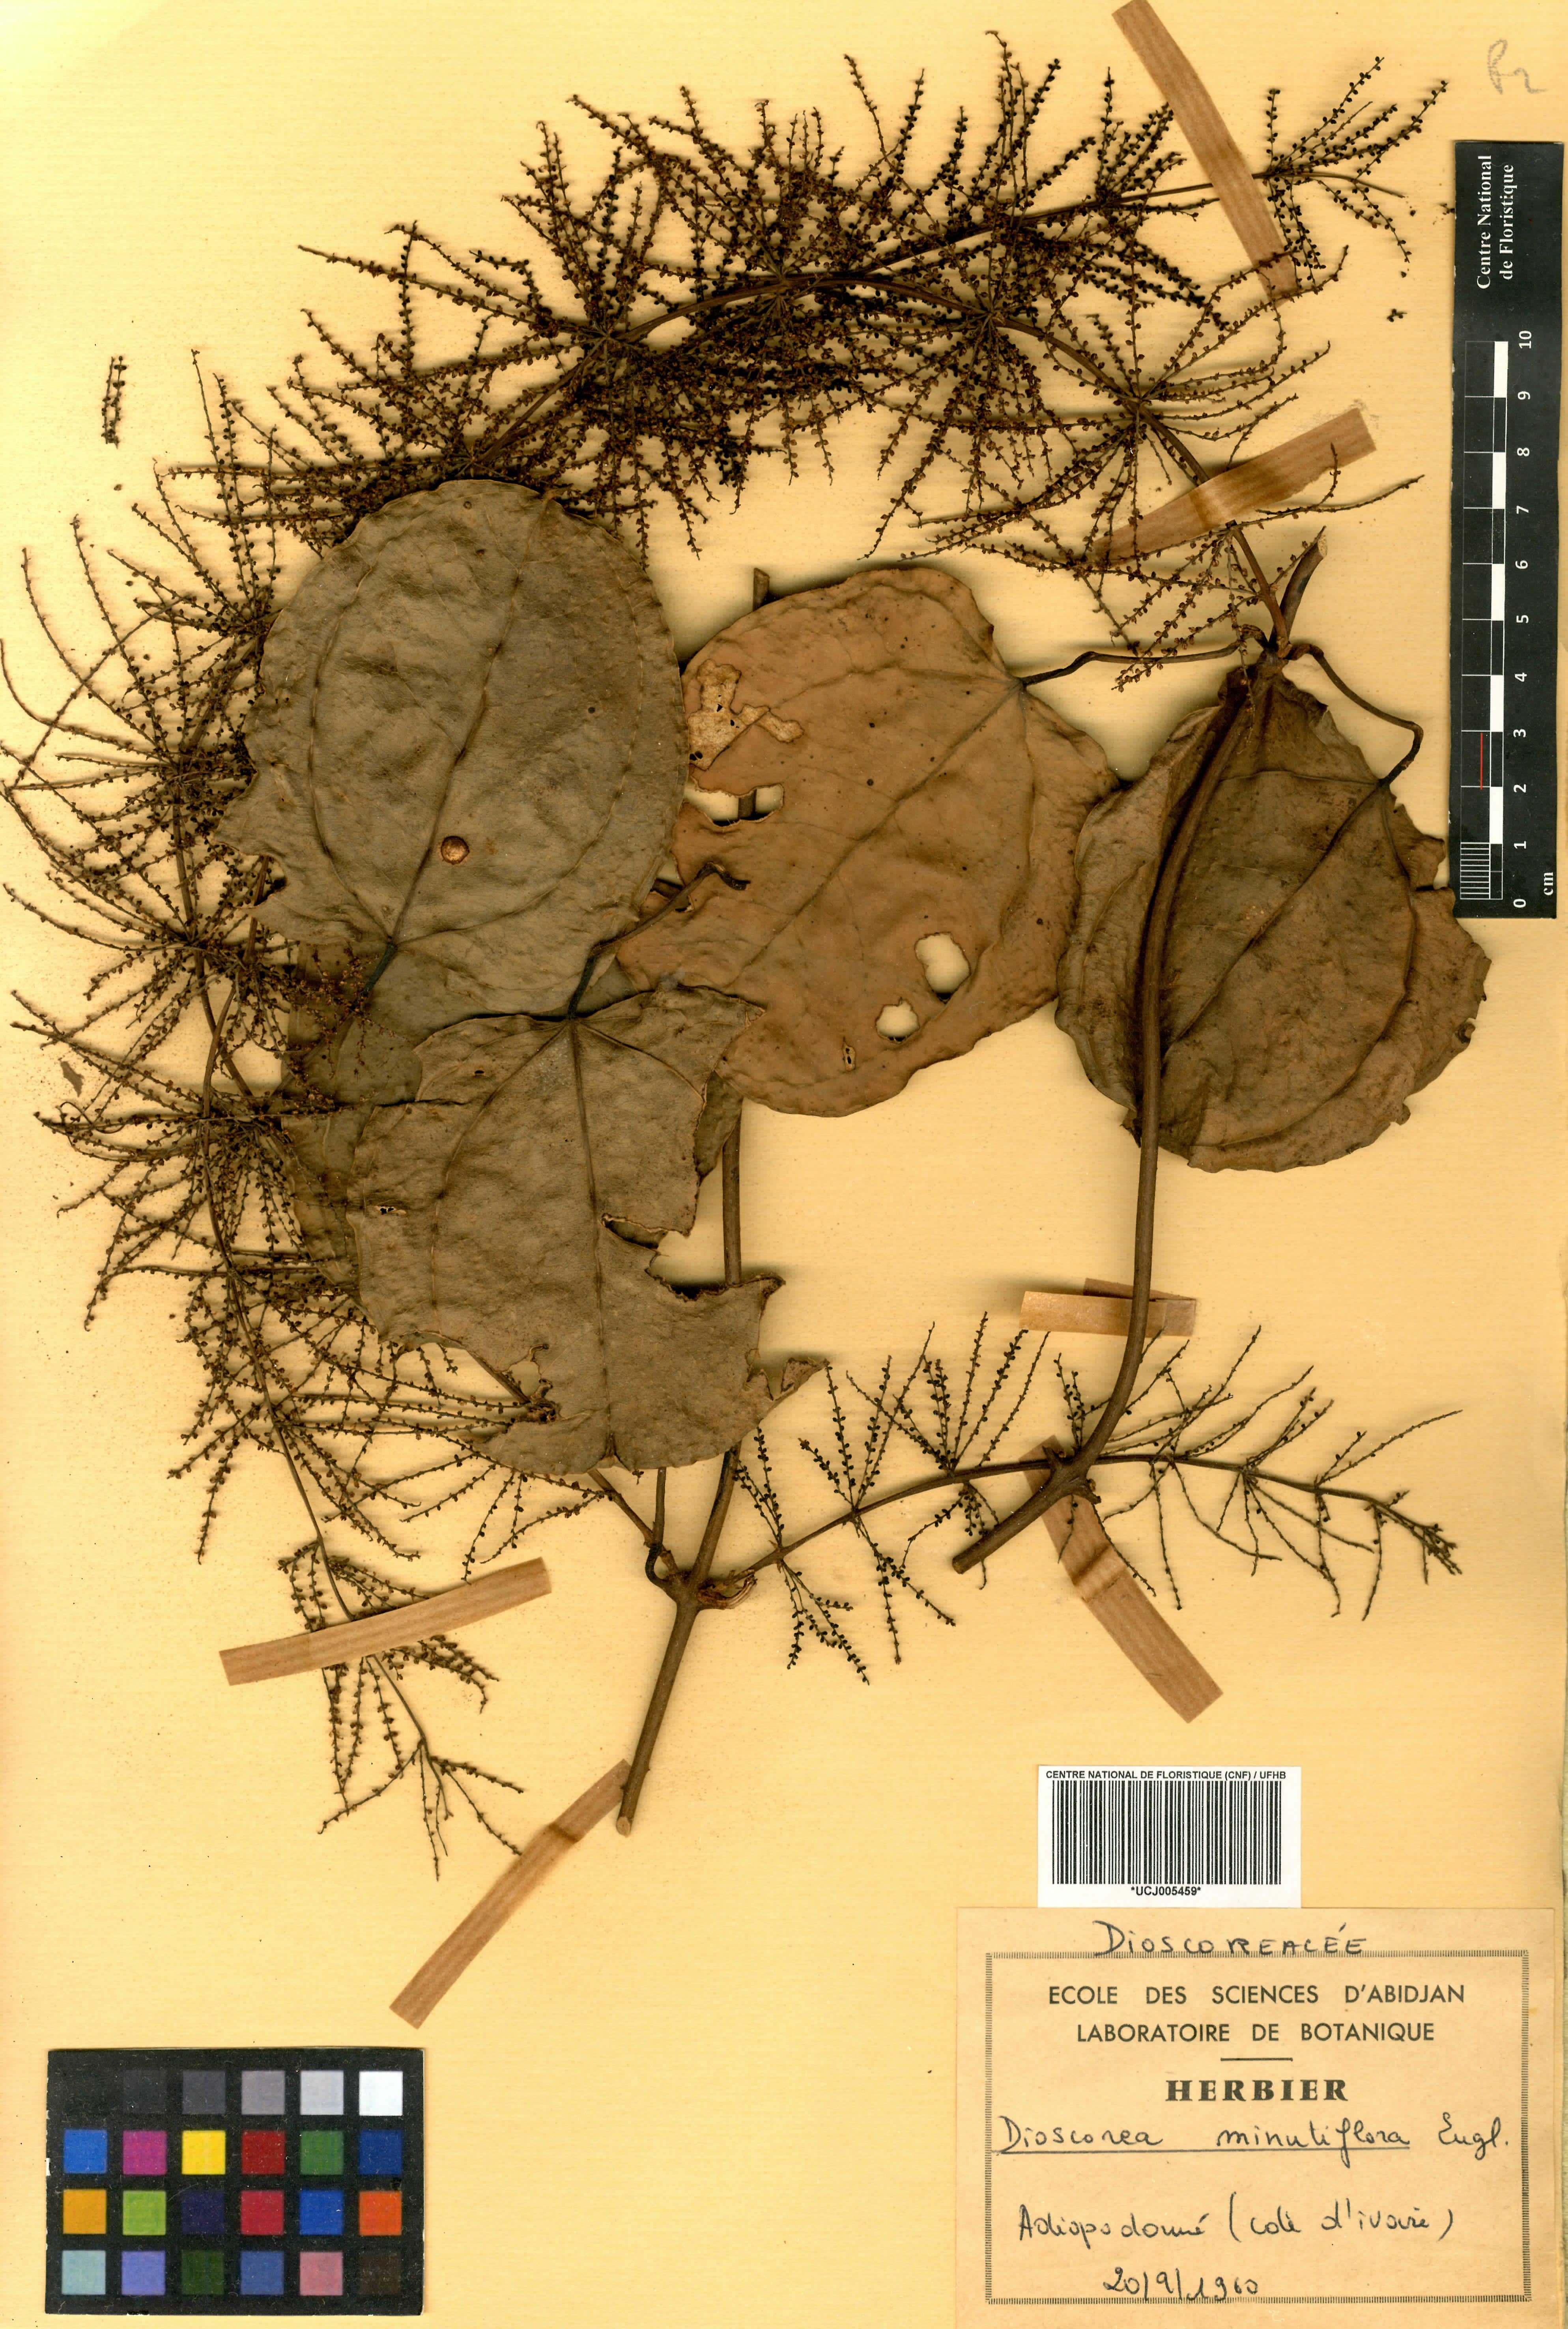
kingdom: Plantae
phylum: Tracheophyta
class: Liliopsida
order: Dioscoreales
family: Dioscoreaceae
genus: Dioscorea
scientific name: Dioscorea minutiflora
